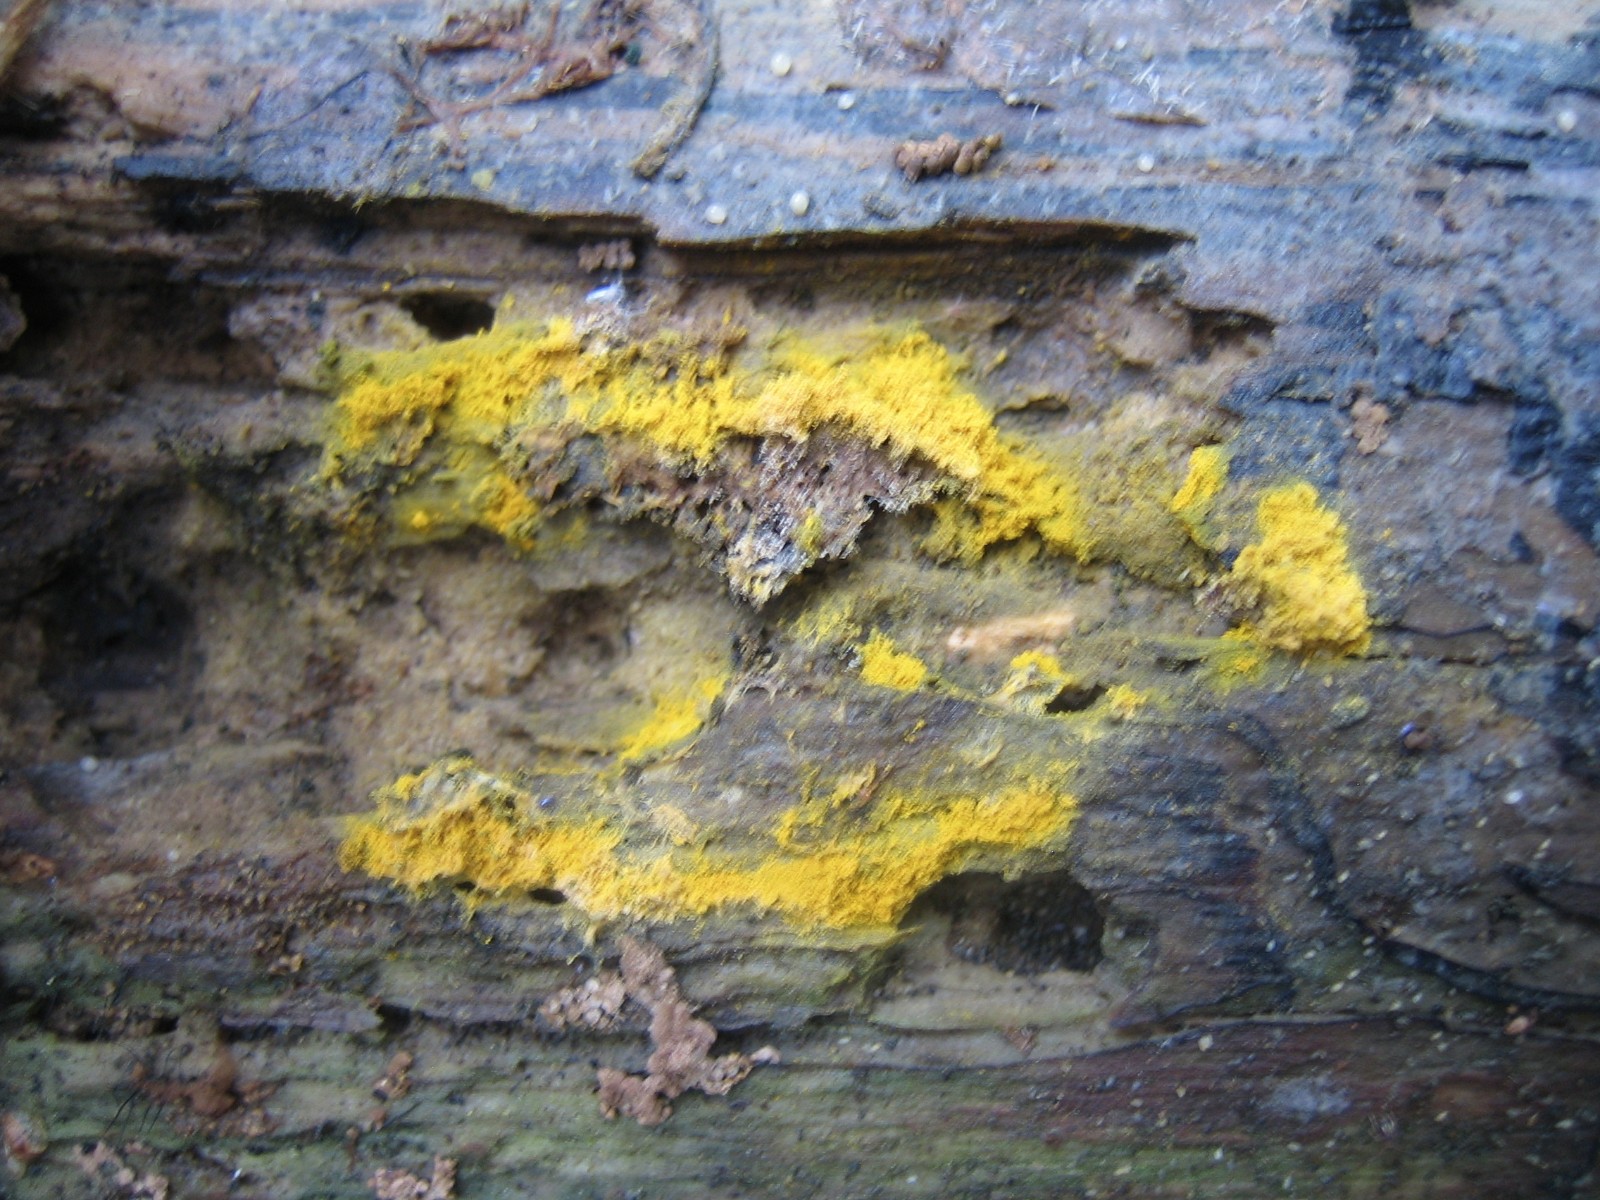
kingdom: Protozoa
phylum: Mycetozoa
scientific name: Mycetozoa
